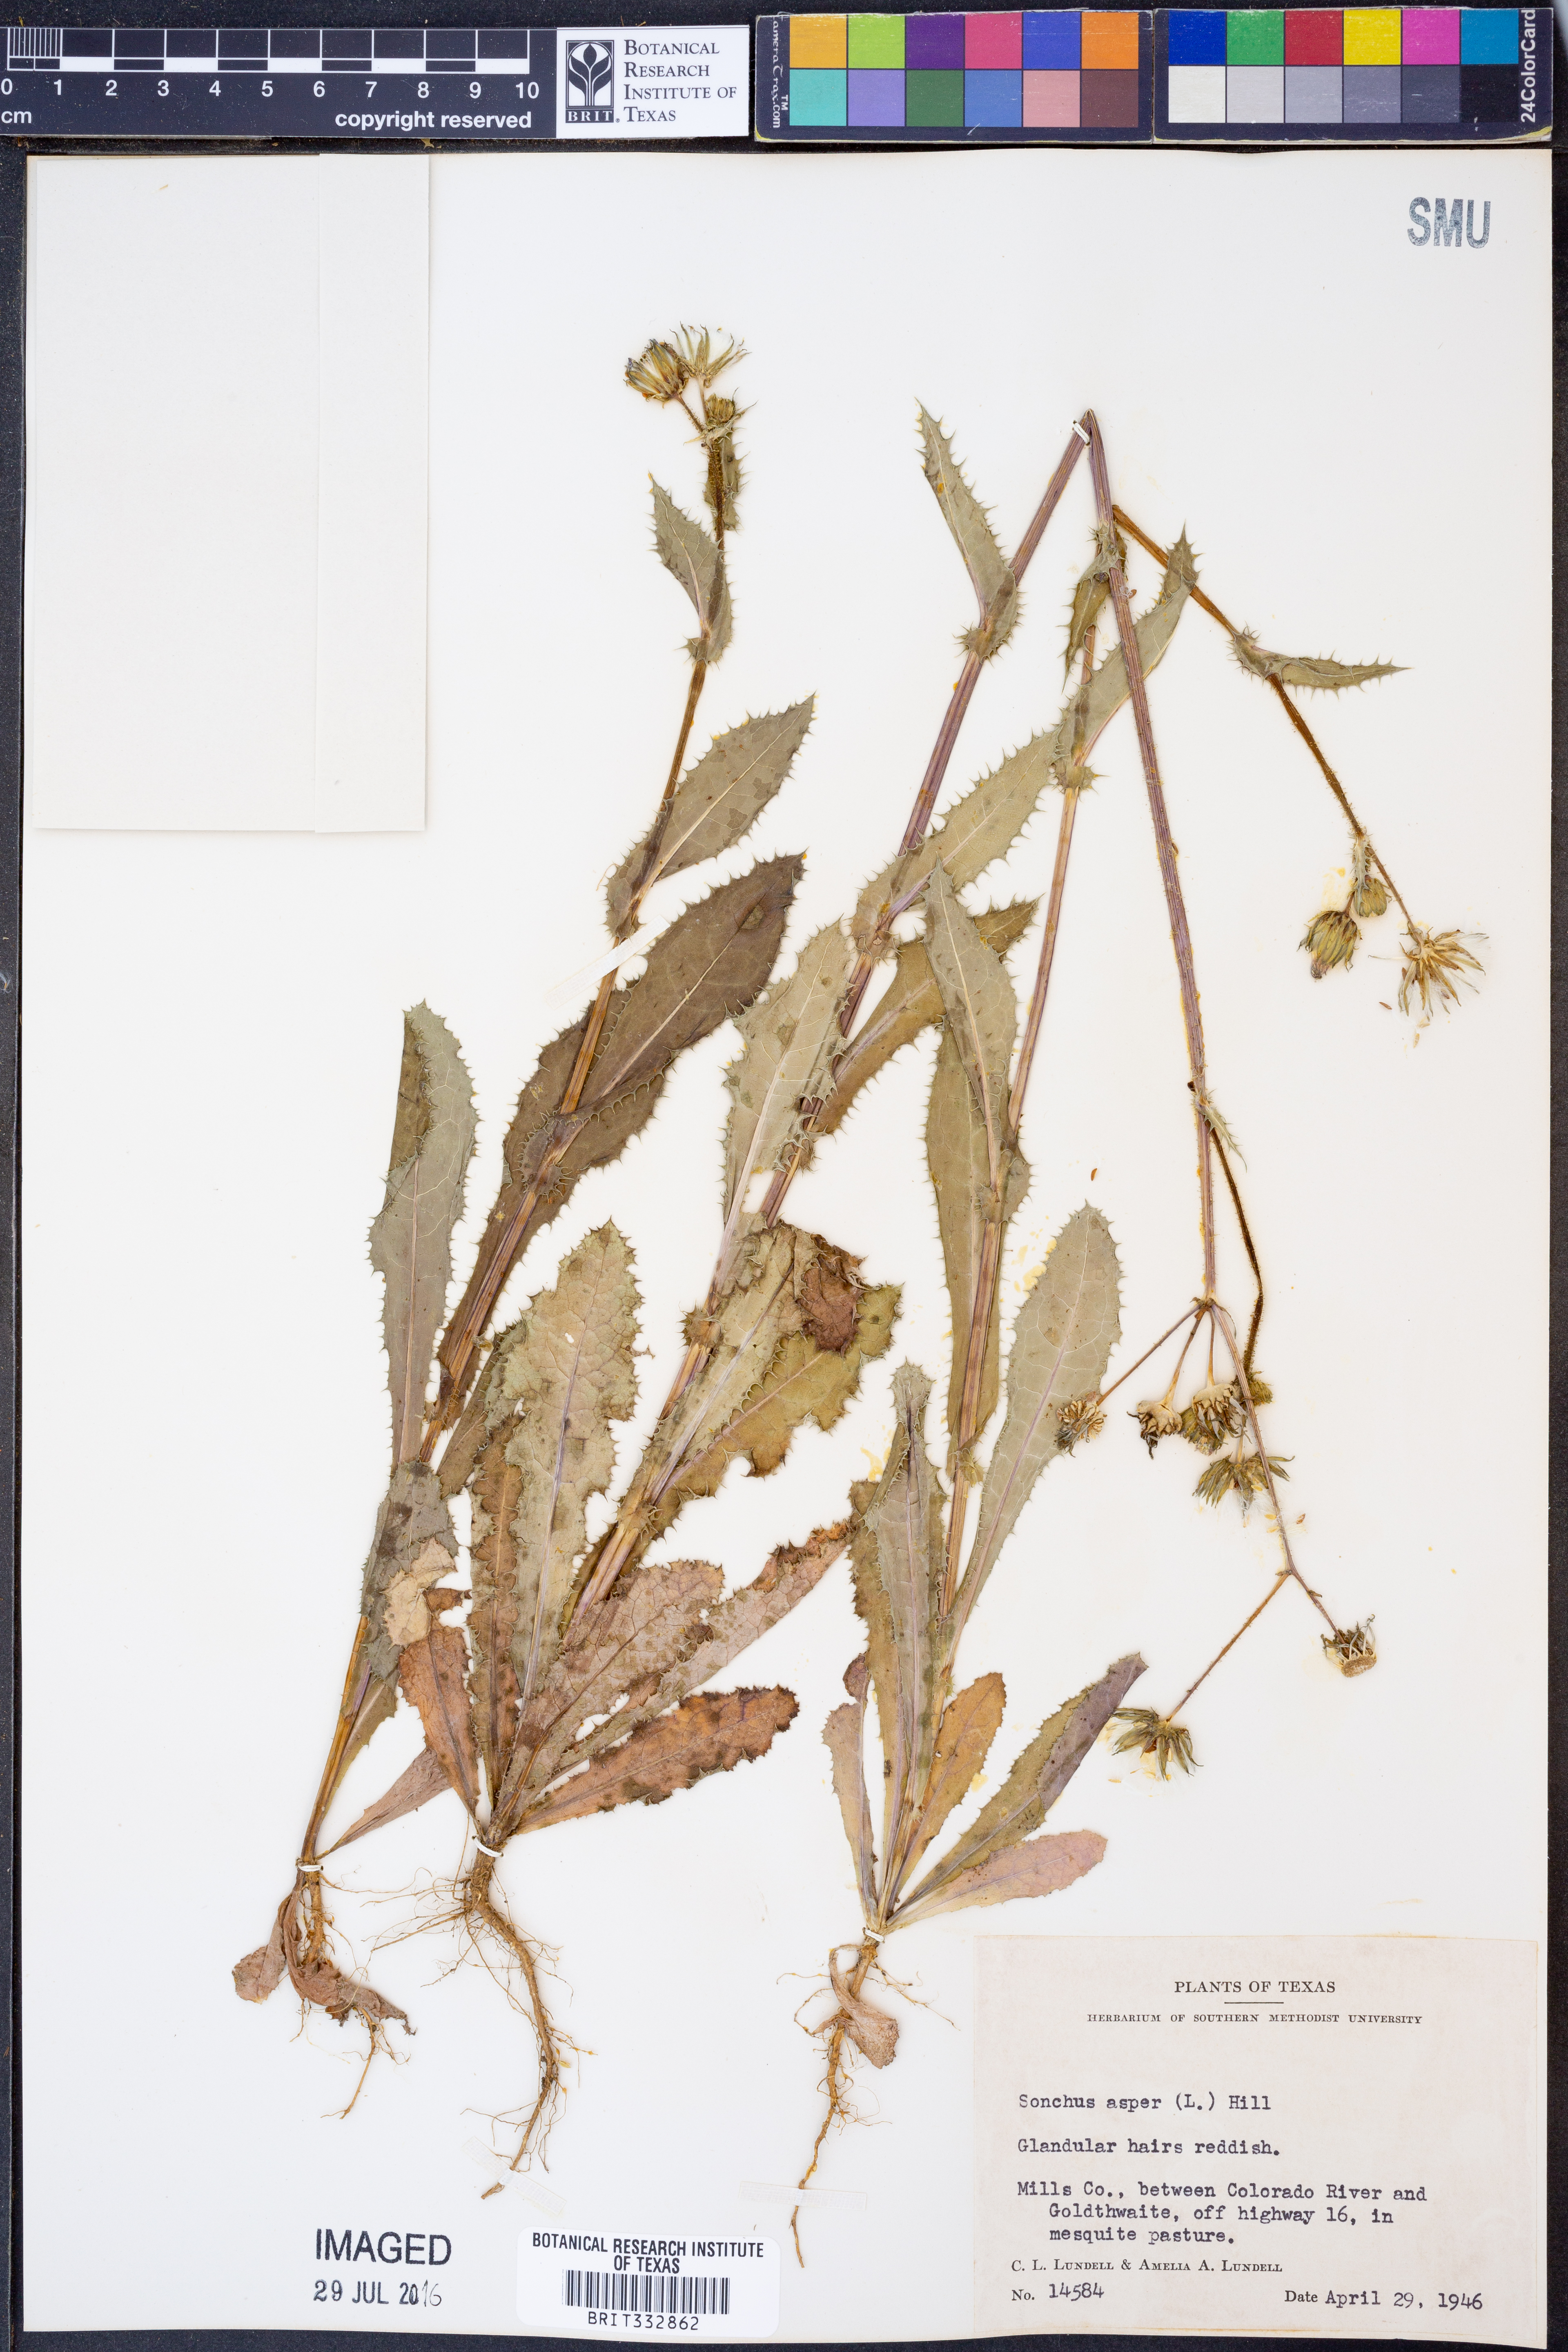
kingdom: Plantae
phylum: Tracheophyta
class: Magnoliopsida
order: Asterales
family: Asteraceae
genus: Sonchus
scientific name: Sonchus asper
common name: Prickly sow-thistle
